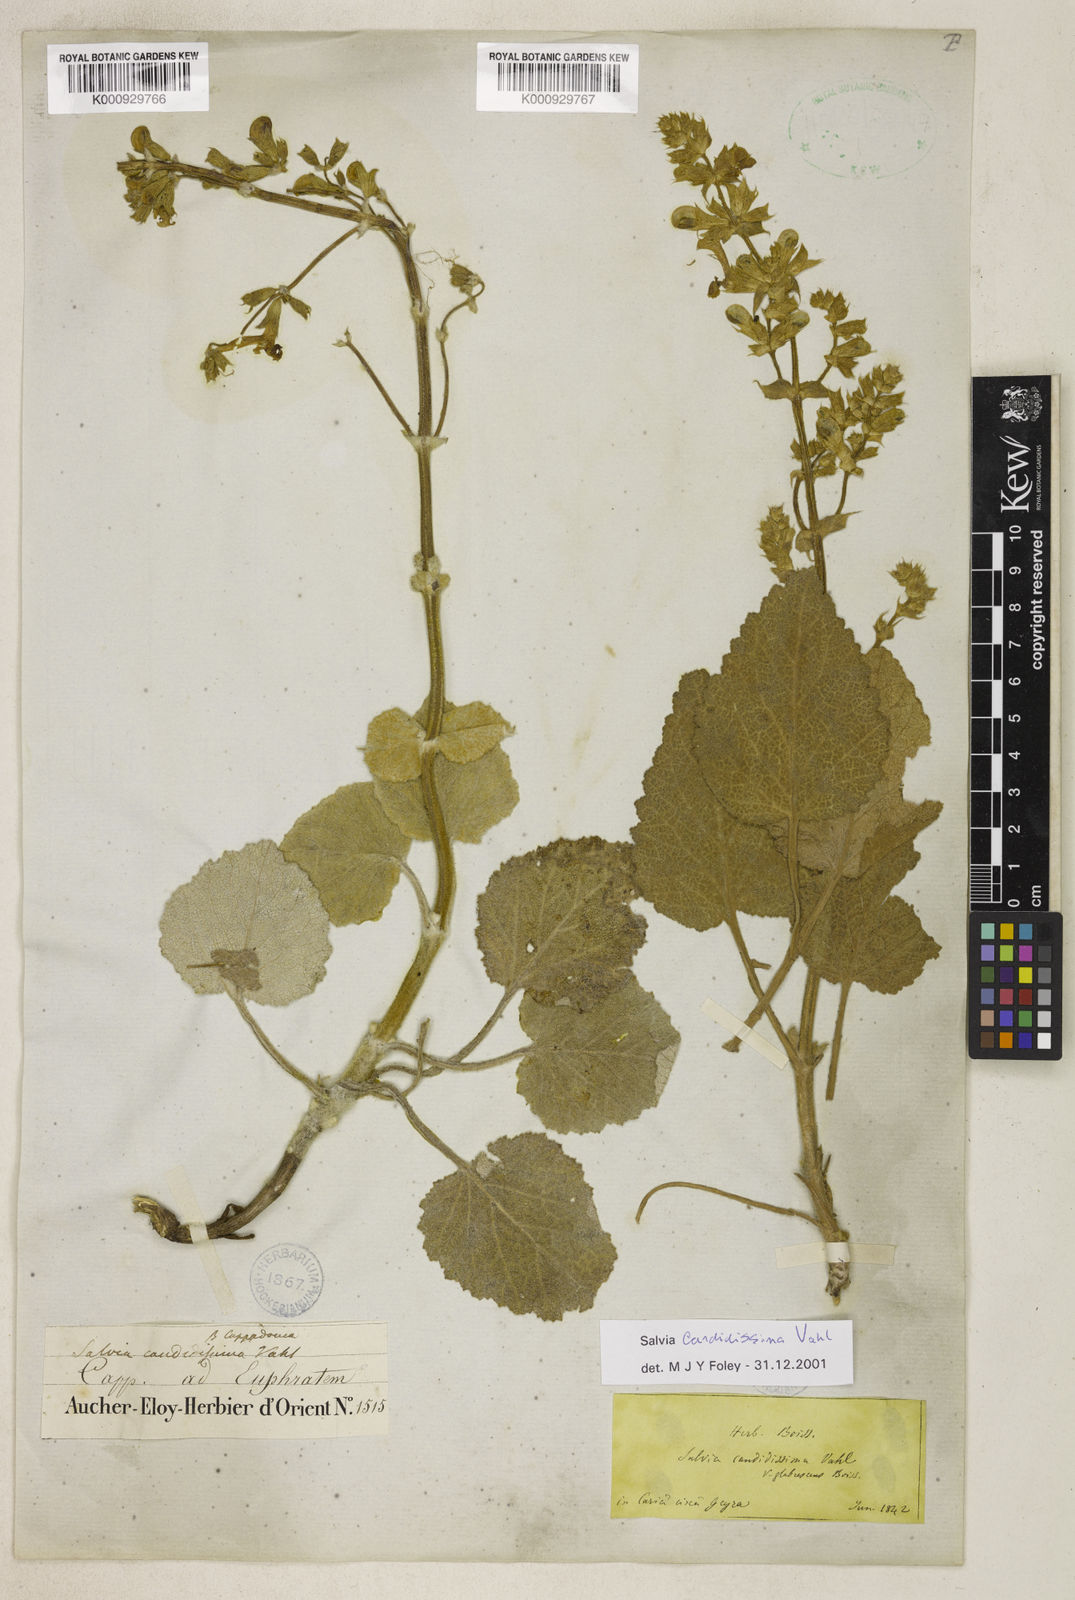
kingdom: Plantae
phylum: Tracheophyta
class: Magnoliopsida
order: Lamiales
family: Lamiaceae
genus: Salvia
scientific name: Salvia candidissima
